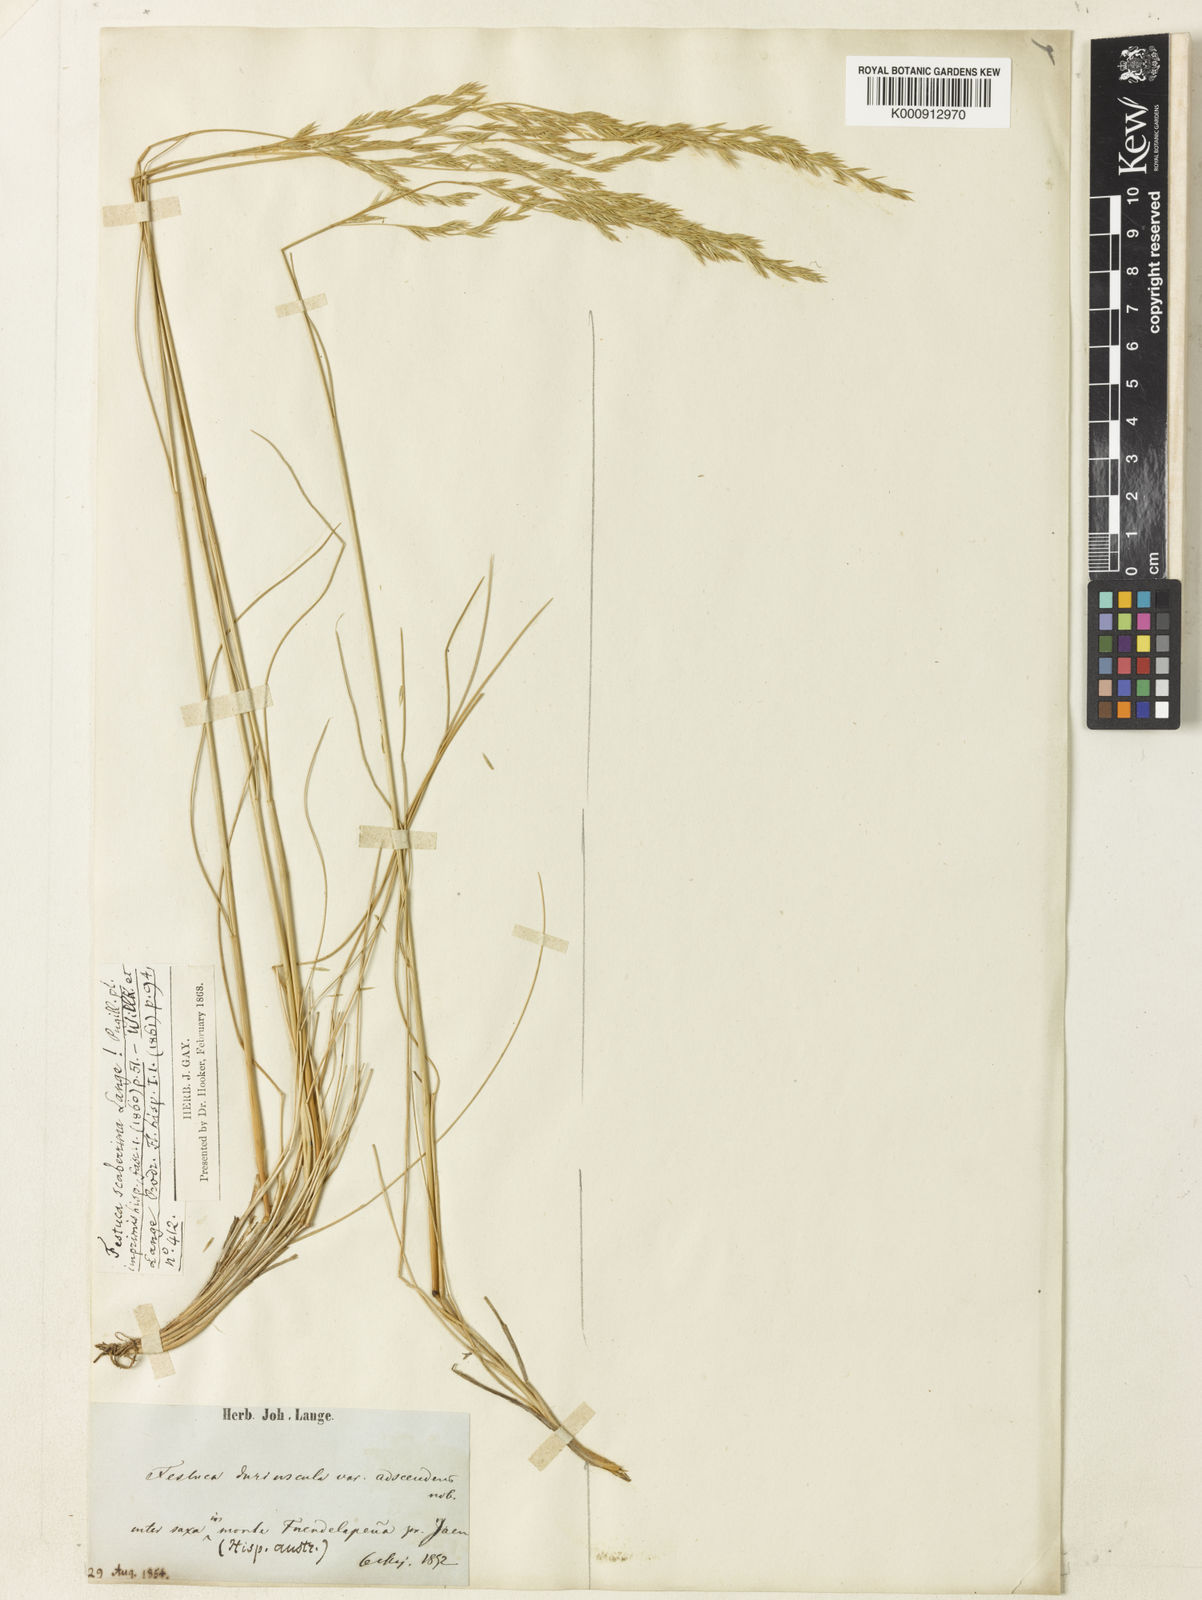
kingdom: Plantae
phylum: Tracheophyta
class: Liliopsida
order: Poales
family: Poaceae
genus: Festuca
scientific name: Festuca capillifolia
